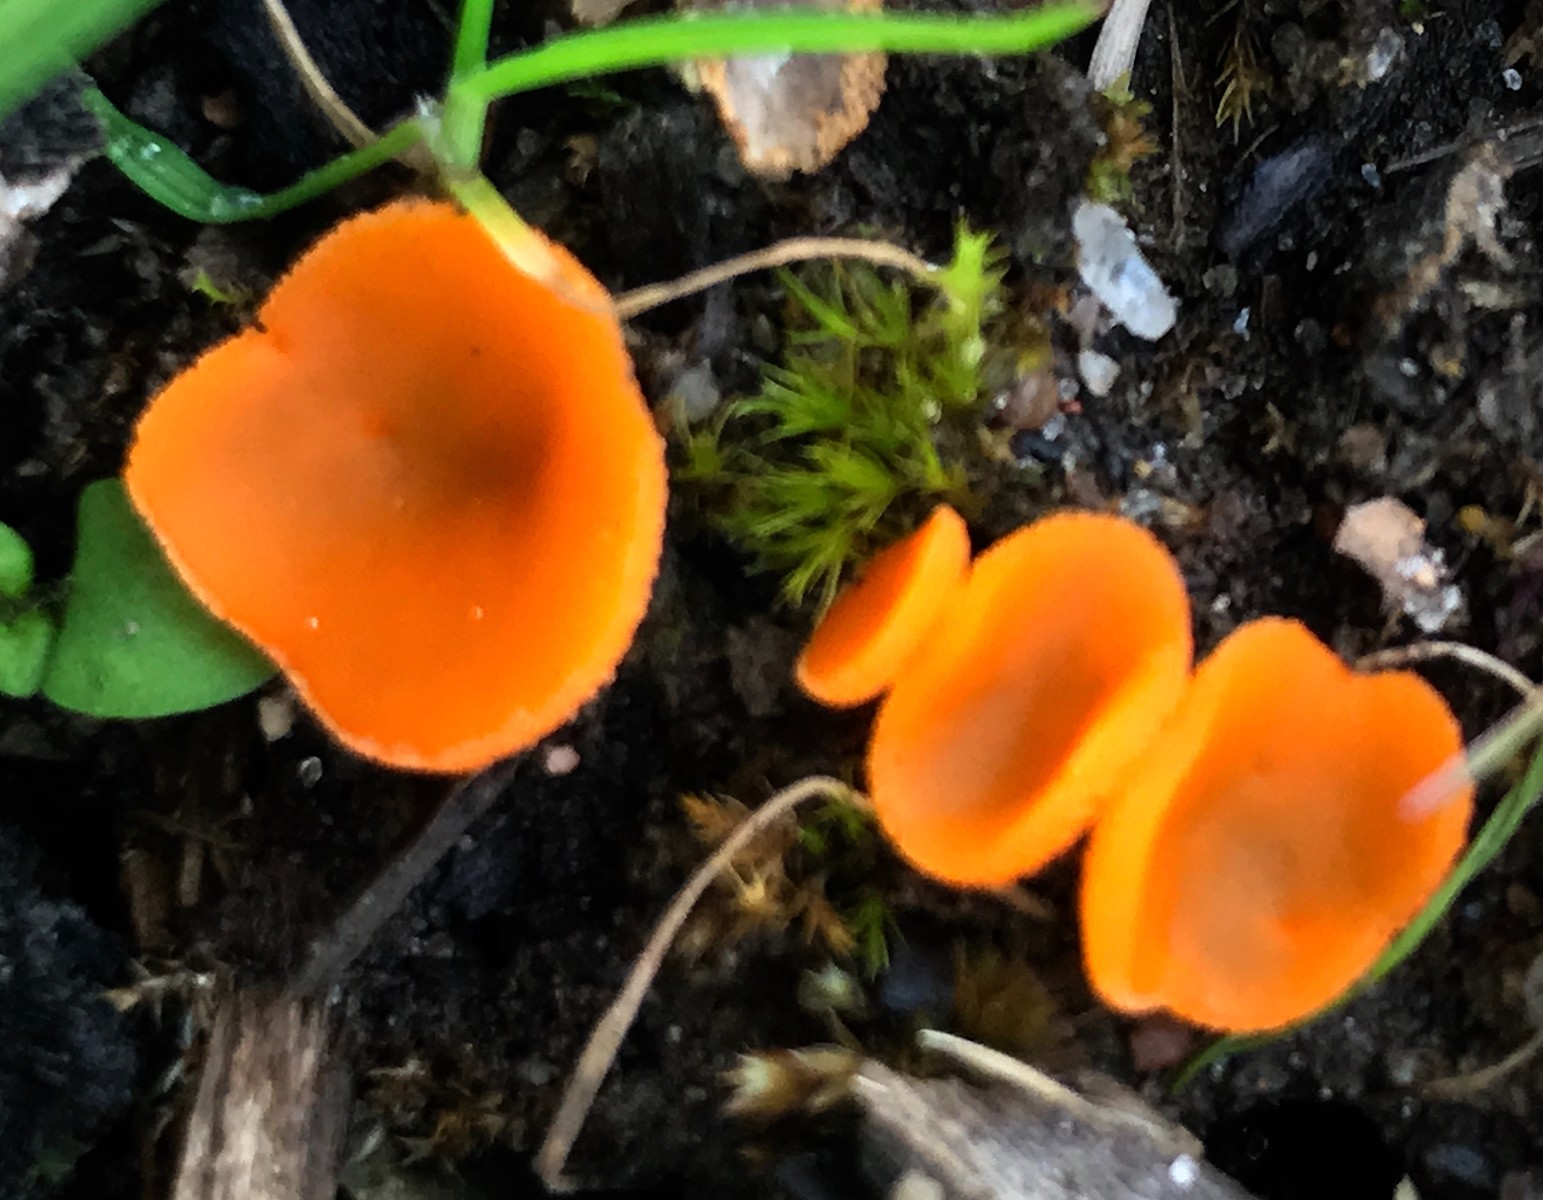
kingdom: Fungi
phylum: Ascomycota
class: Pezizomycetes
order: Pezizales
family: Pyronemataceae
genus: Aleuria
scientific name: Aleuria aurantia
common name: almindelig orangebæger
